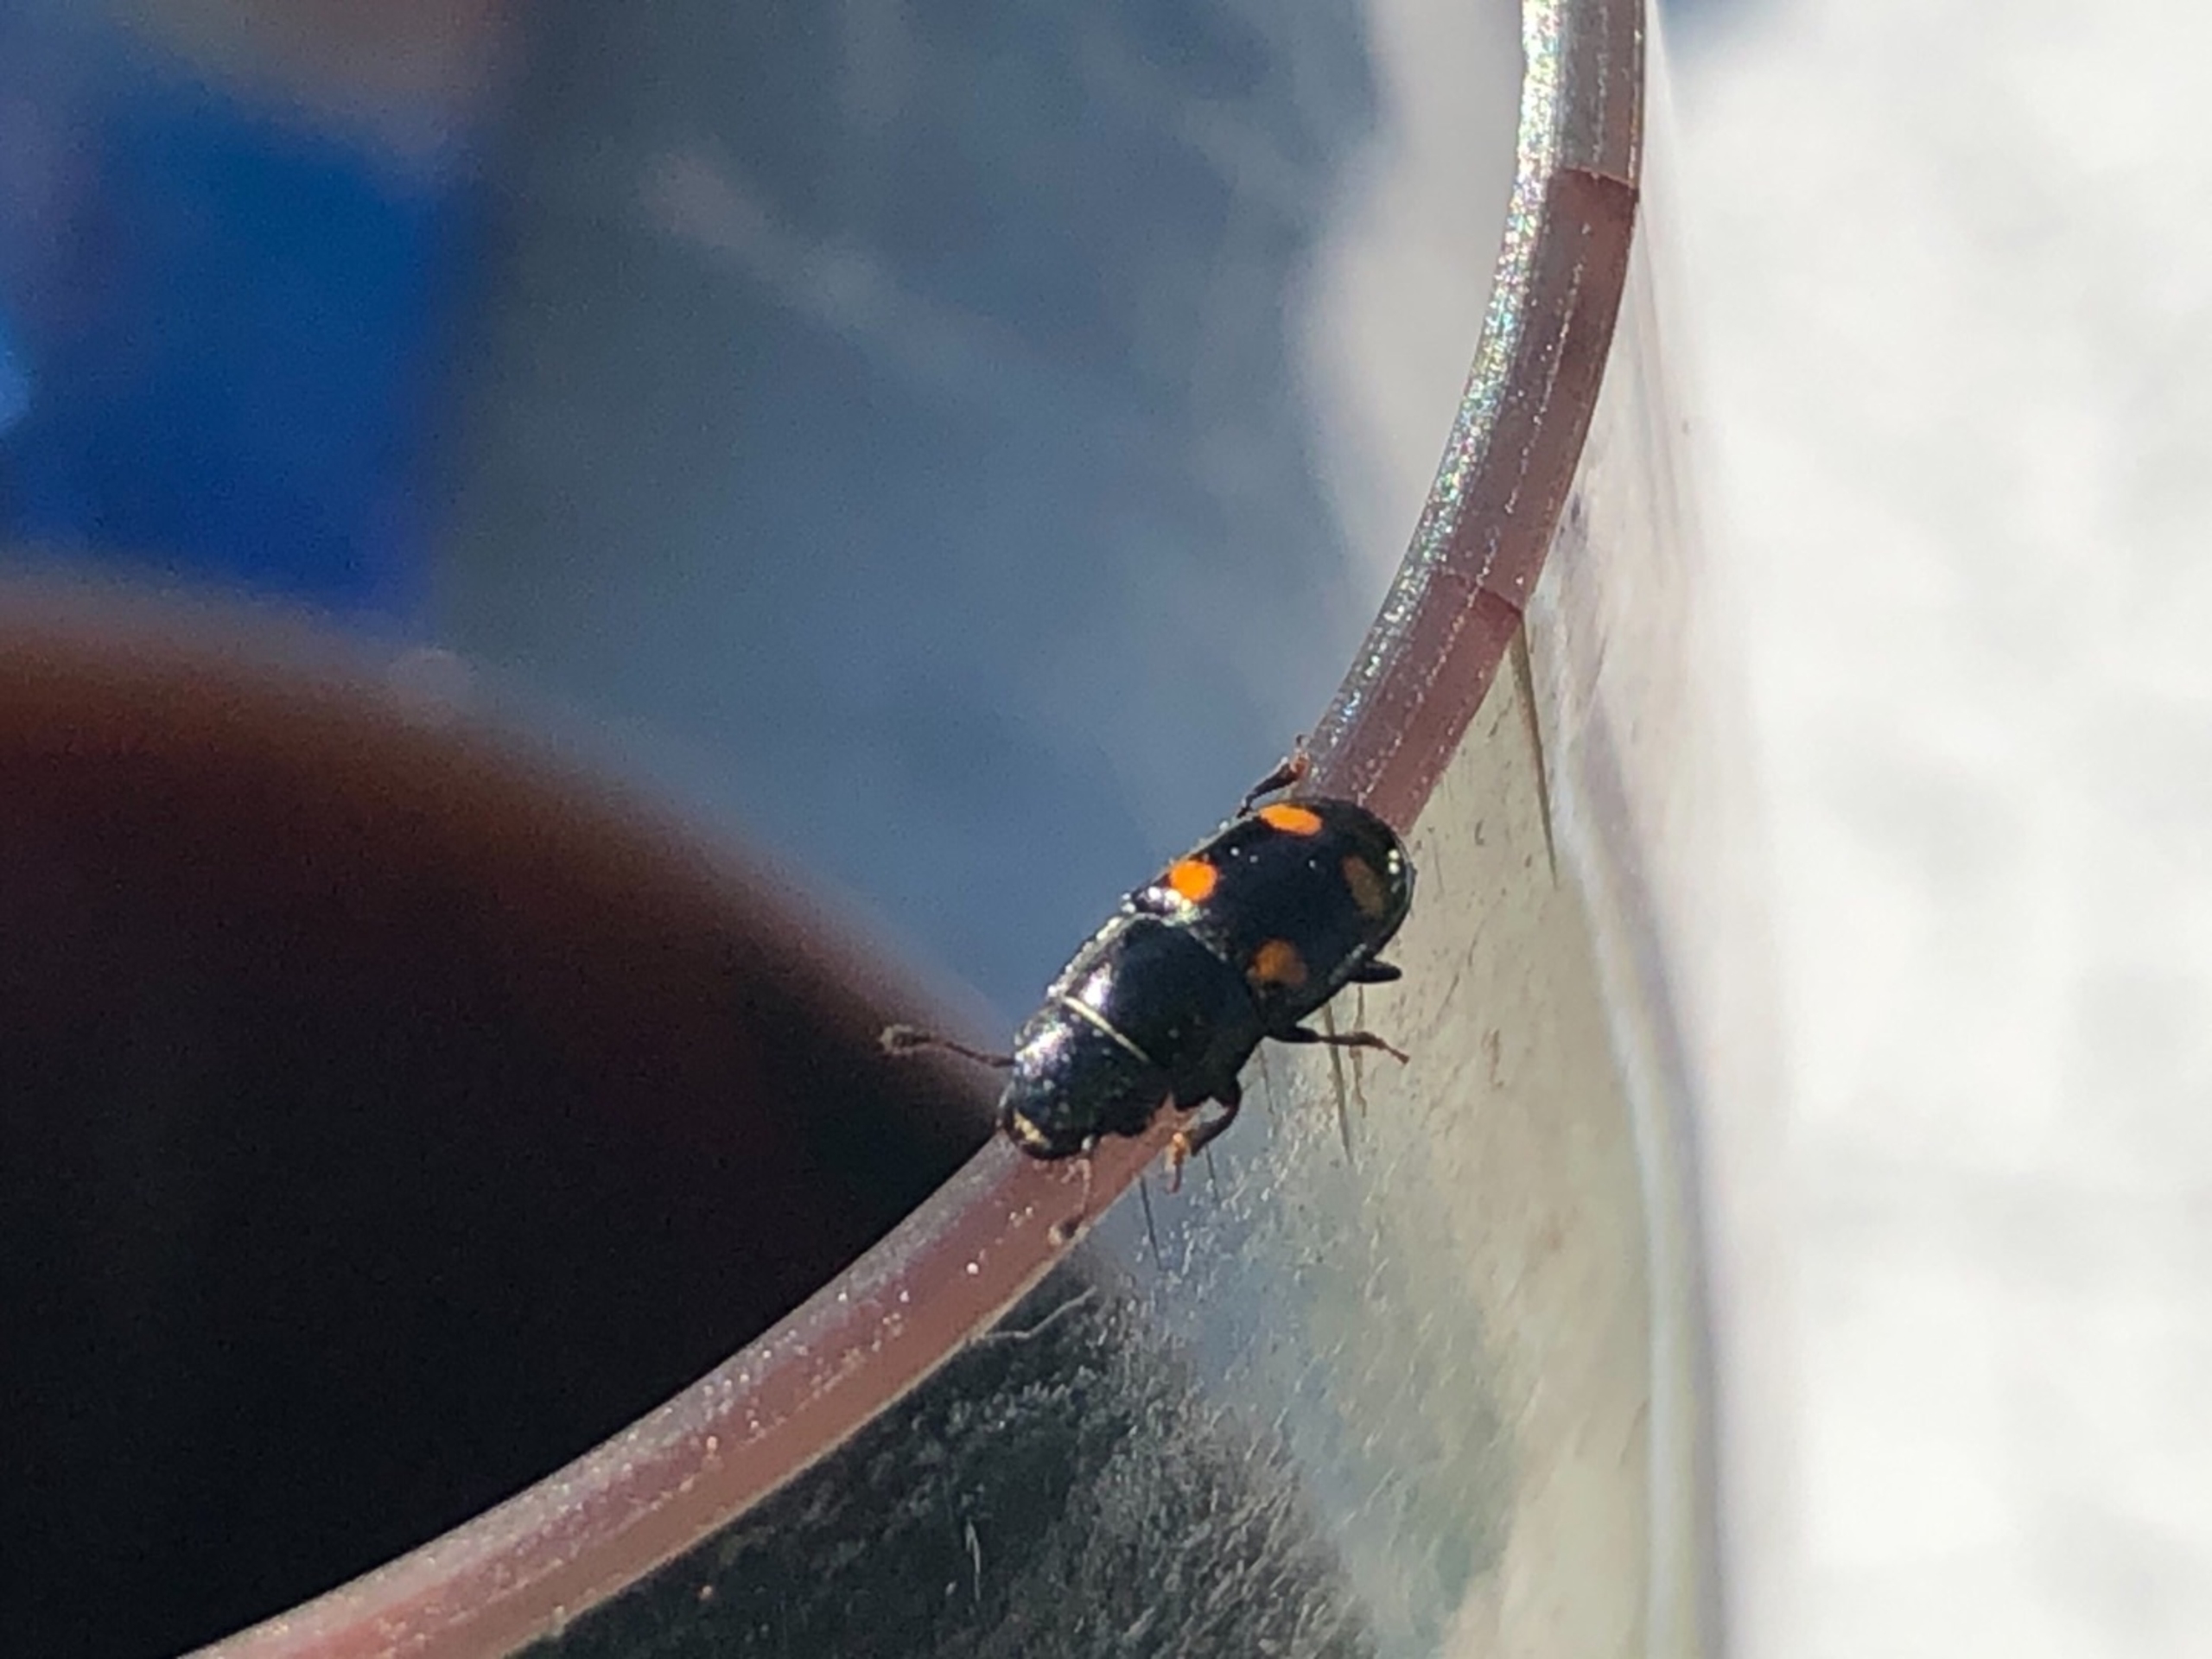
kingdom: Animalia
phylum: Arthropoda
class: Insecta
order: Coleoptera
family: Nitidulidae
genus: Glischrochilus
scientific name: Glischrochilus hortensis
